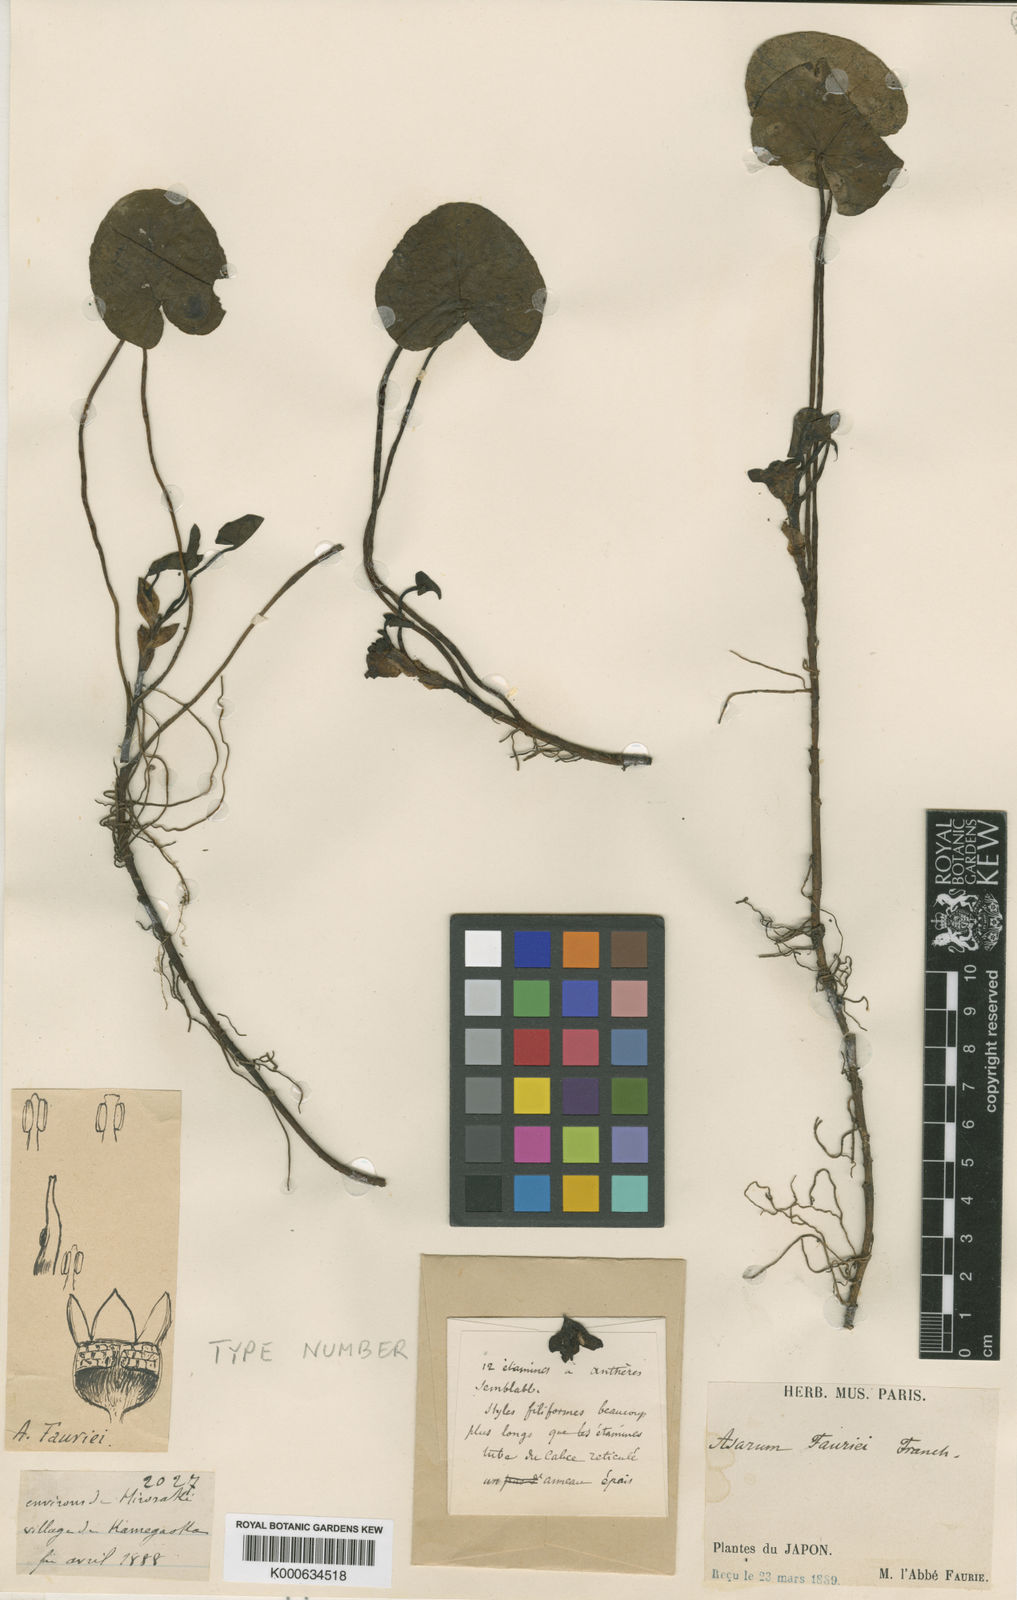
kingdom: Plantae
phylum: Tracheophyta
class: Magnoliopsida
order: Piperales
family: Aristolochiaceae
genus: Asarum
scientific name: Asarum fauriei
